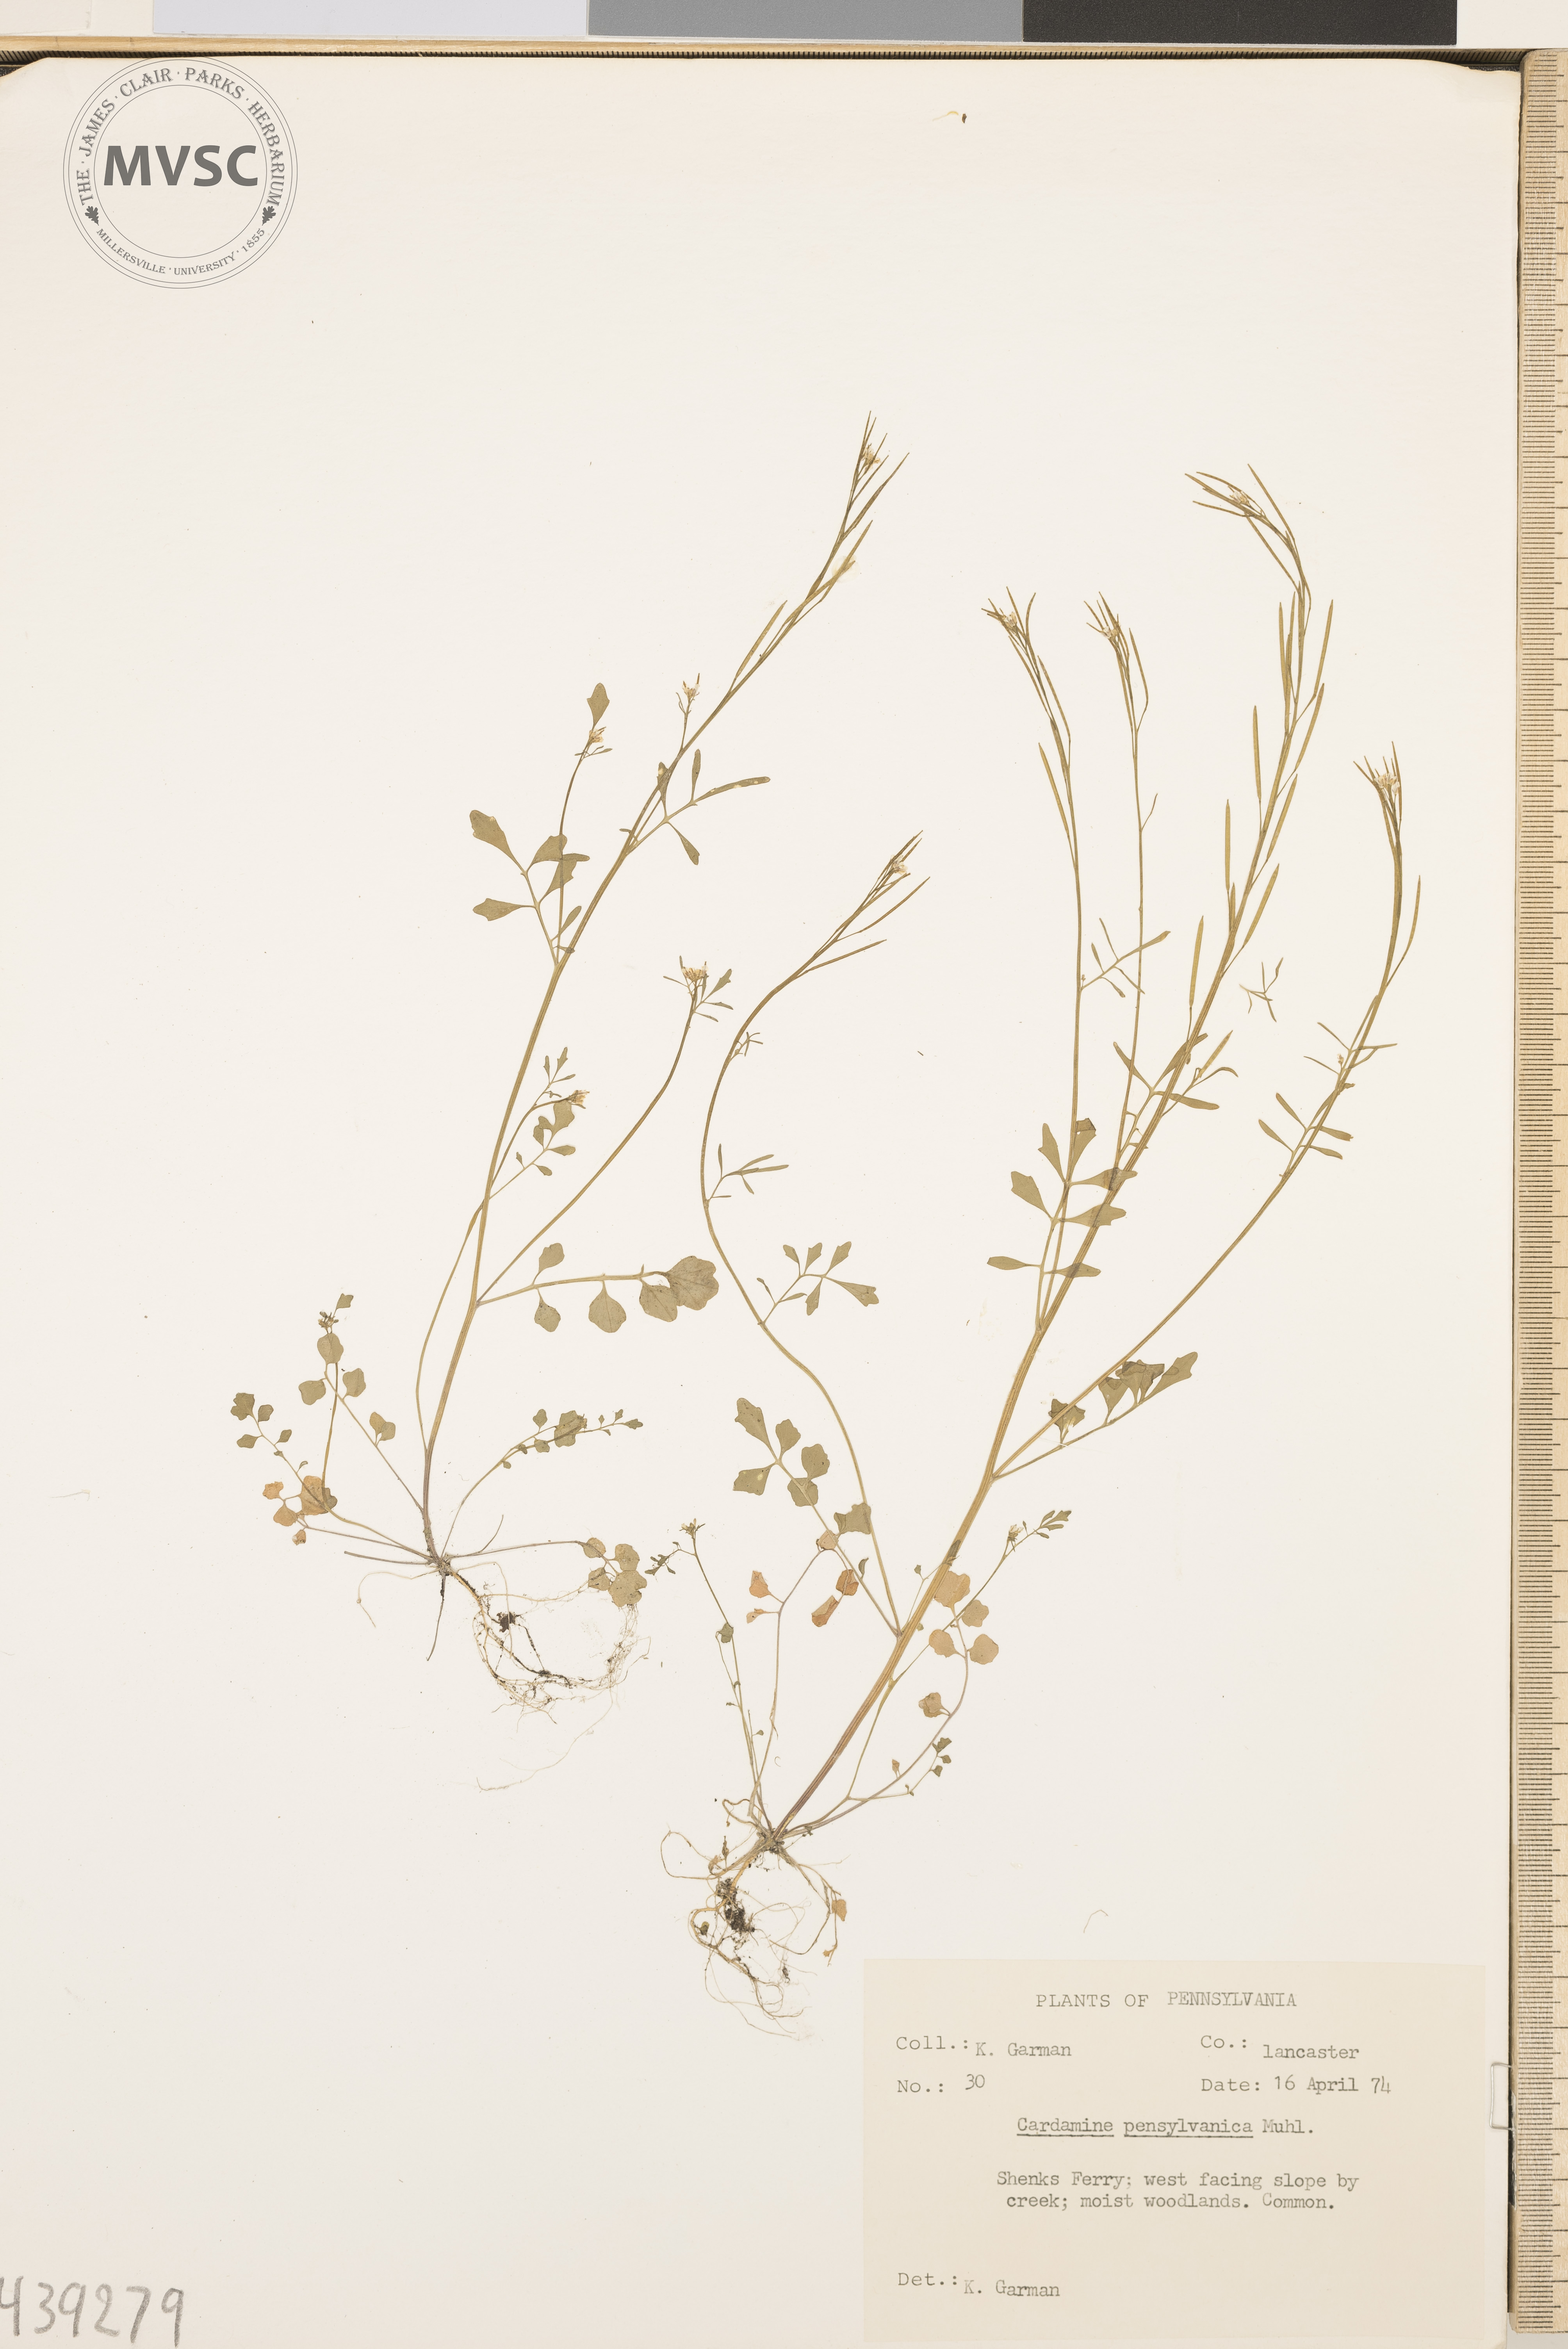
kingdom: Plantae
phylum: Tracheophyta
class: Magnoliopsida
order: Brassicales
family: Brassicaceae
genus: Cardamine
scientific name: Cardamine pensylvanica
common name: Pennsylvania bittercress
